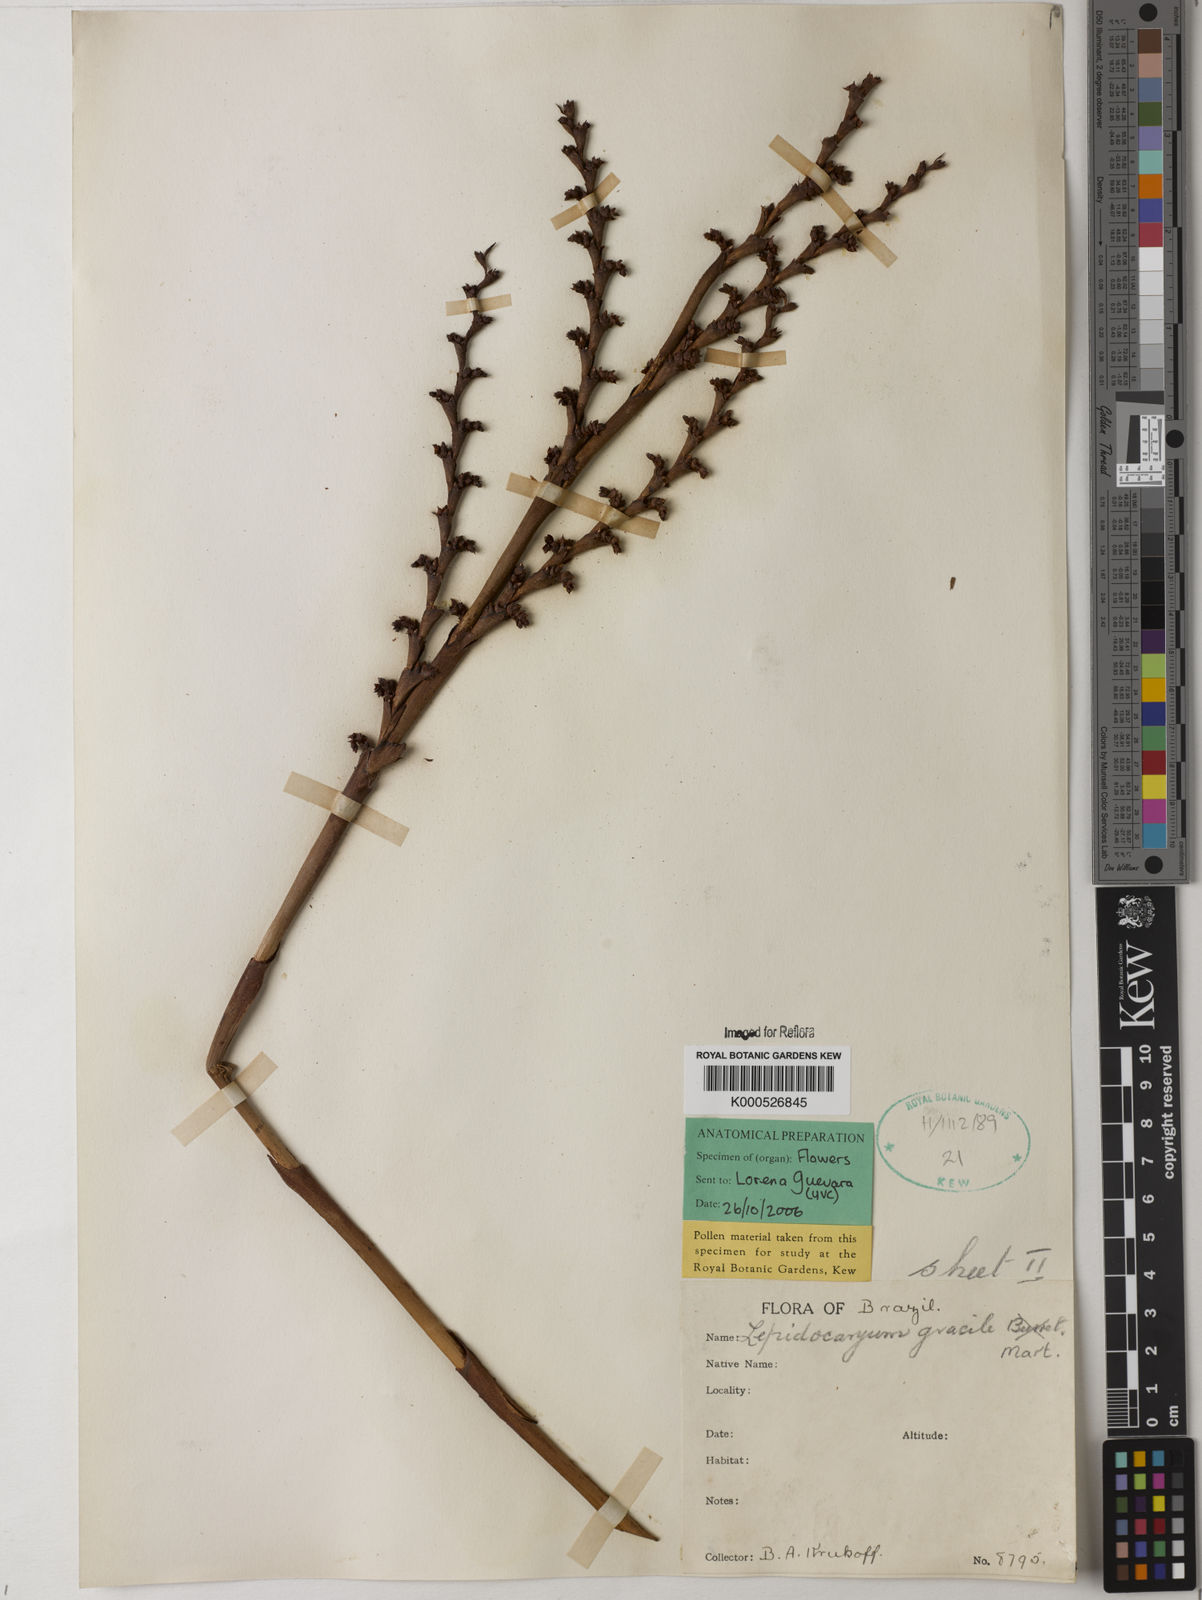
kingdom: Plantae
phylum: Tracheophyta
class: Liliopsida
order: Arecales
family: Arecaceae
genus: Lepidocaryum
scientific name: Lepidocaryum tenue
